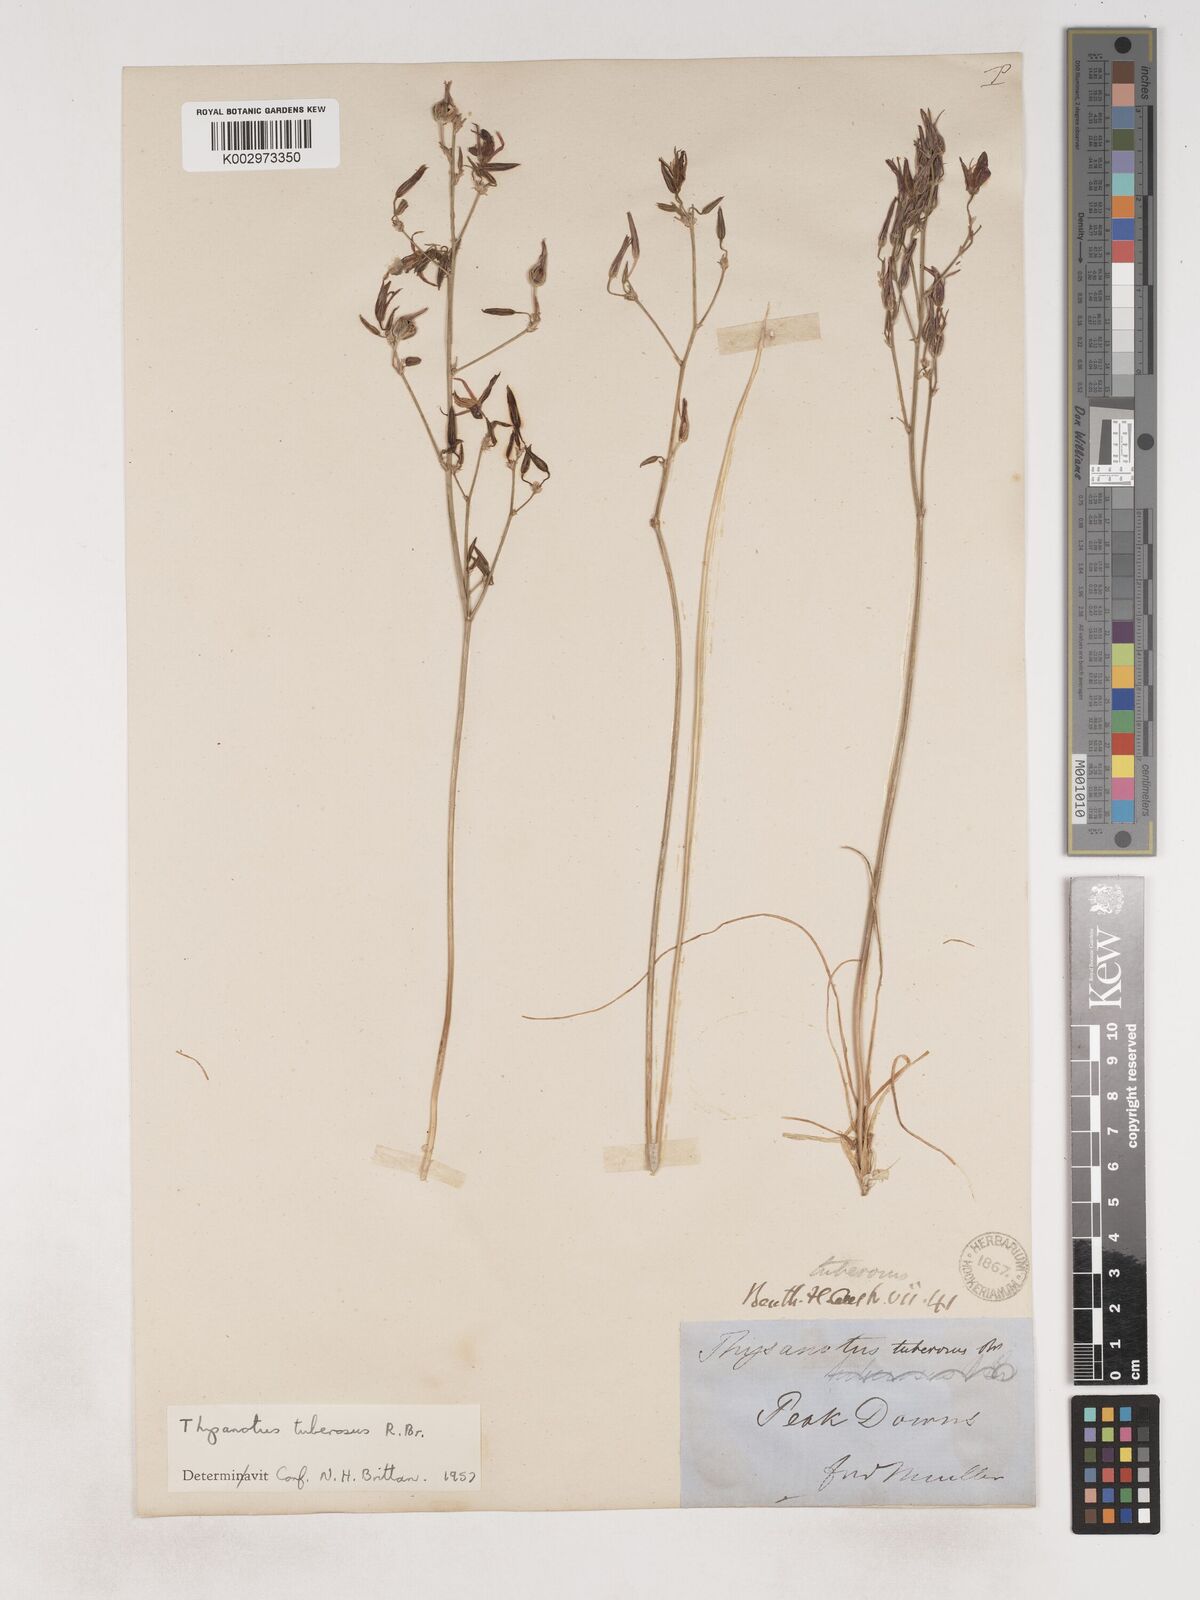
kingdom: Plantae
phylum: Tracheophyta
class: Liliopsida
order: Asparagales
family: Asparagaceae
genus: Thysanotus
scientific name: Thysanotus tuberosus
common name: Common fringed-lily
